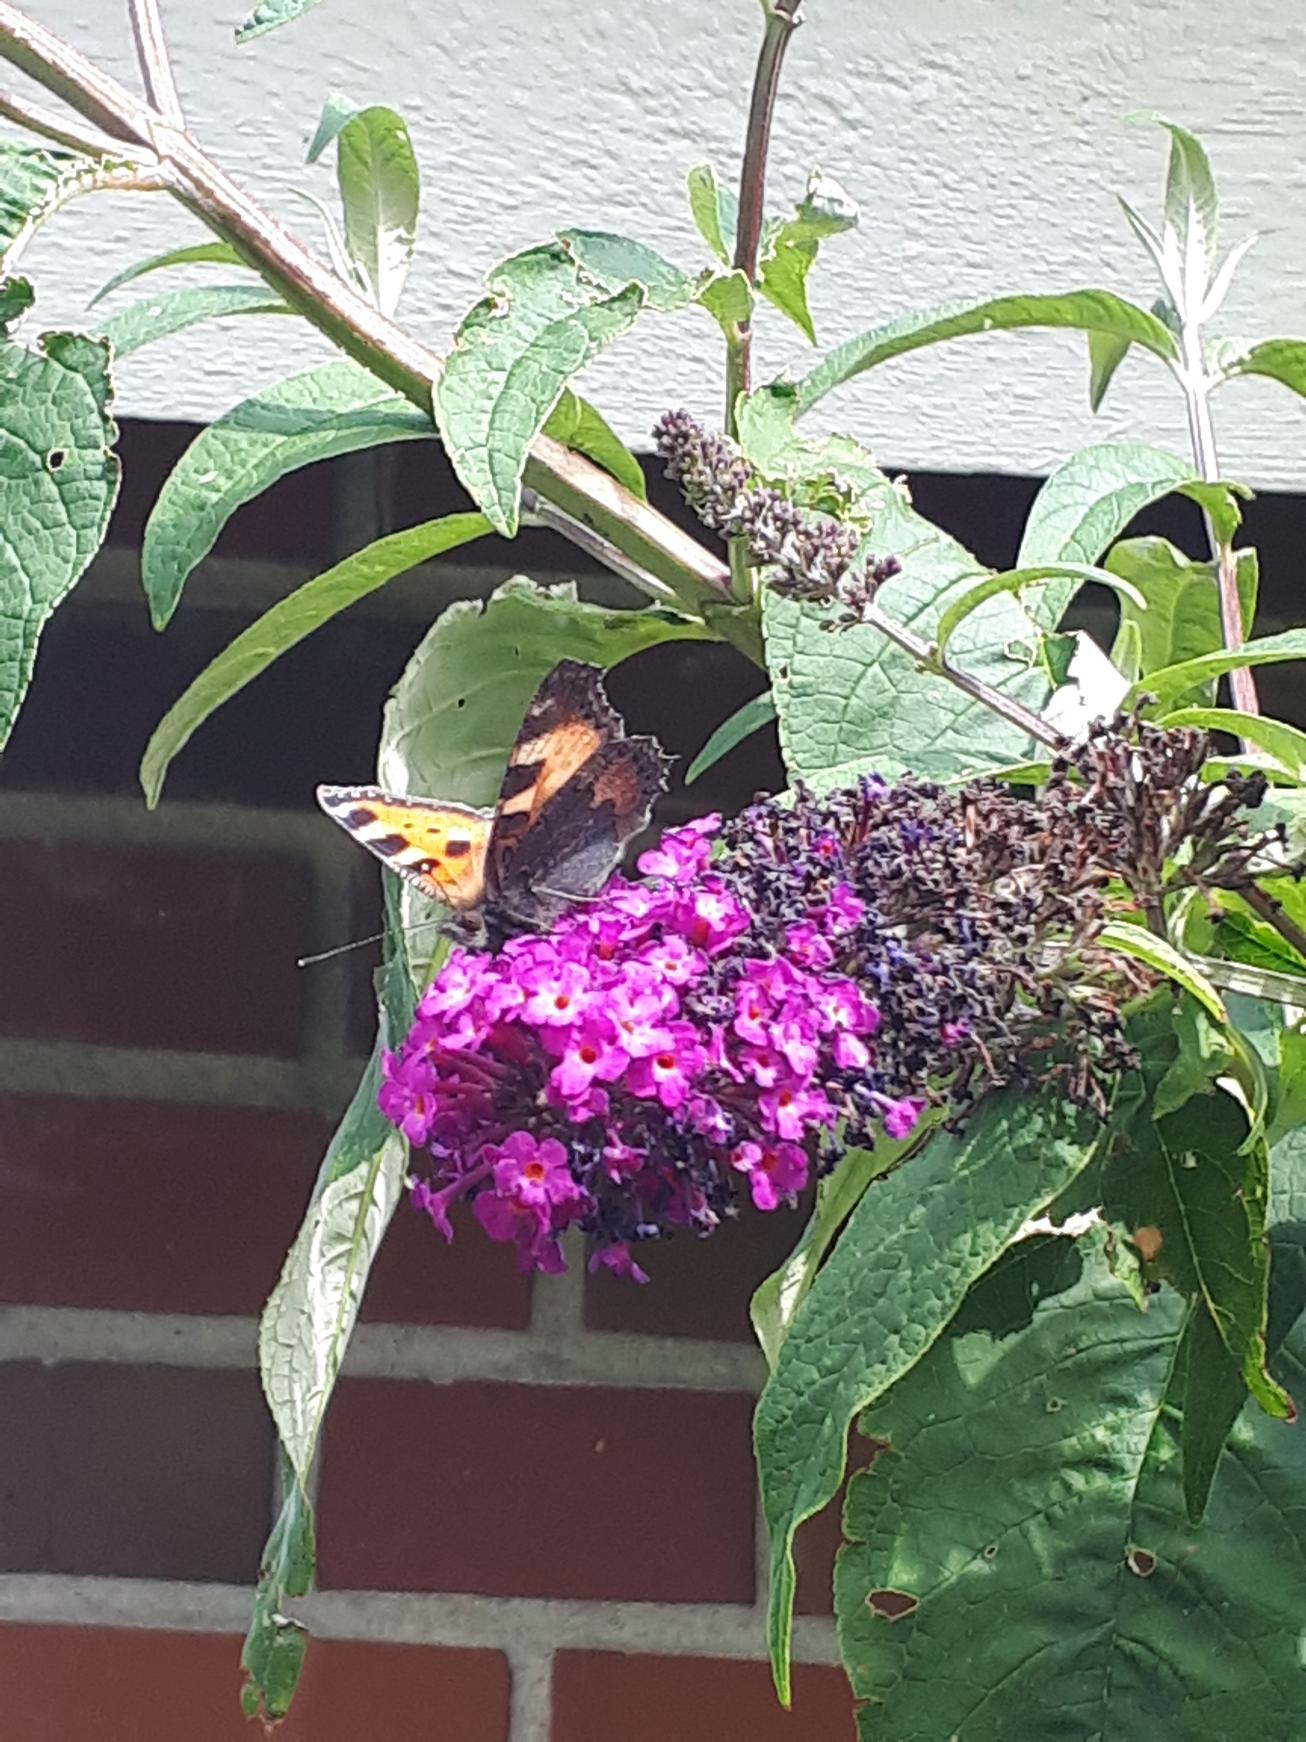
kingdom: Animalia
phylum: Arthropoda
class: Insecta
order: Lepidoptera
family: Nymphalidae
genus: Aglais
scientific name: Aglais urticae
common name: Nældens takvinge
